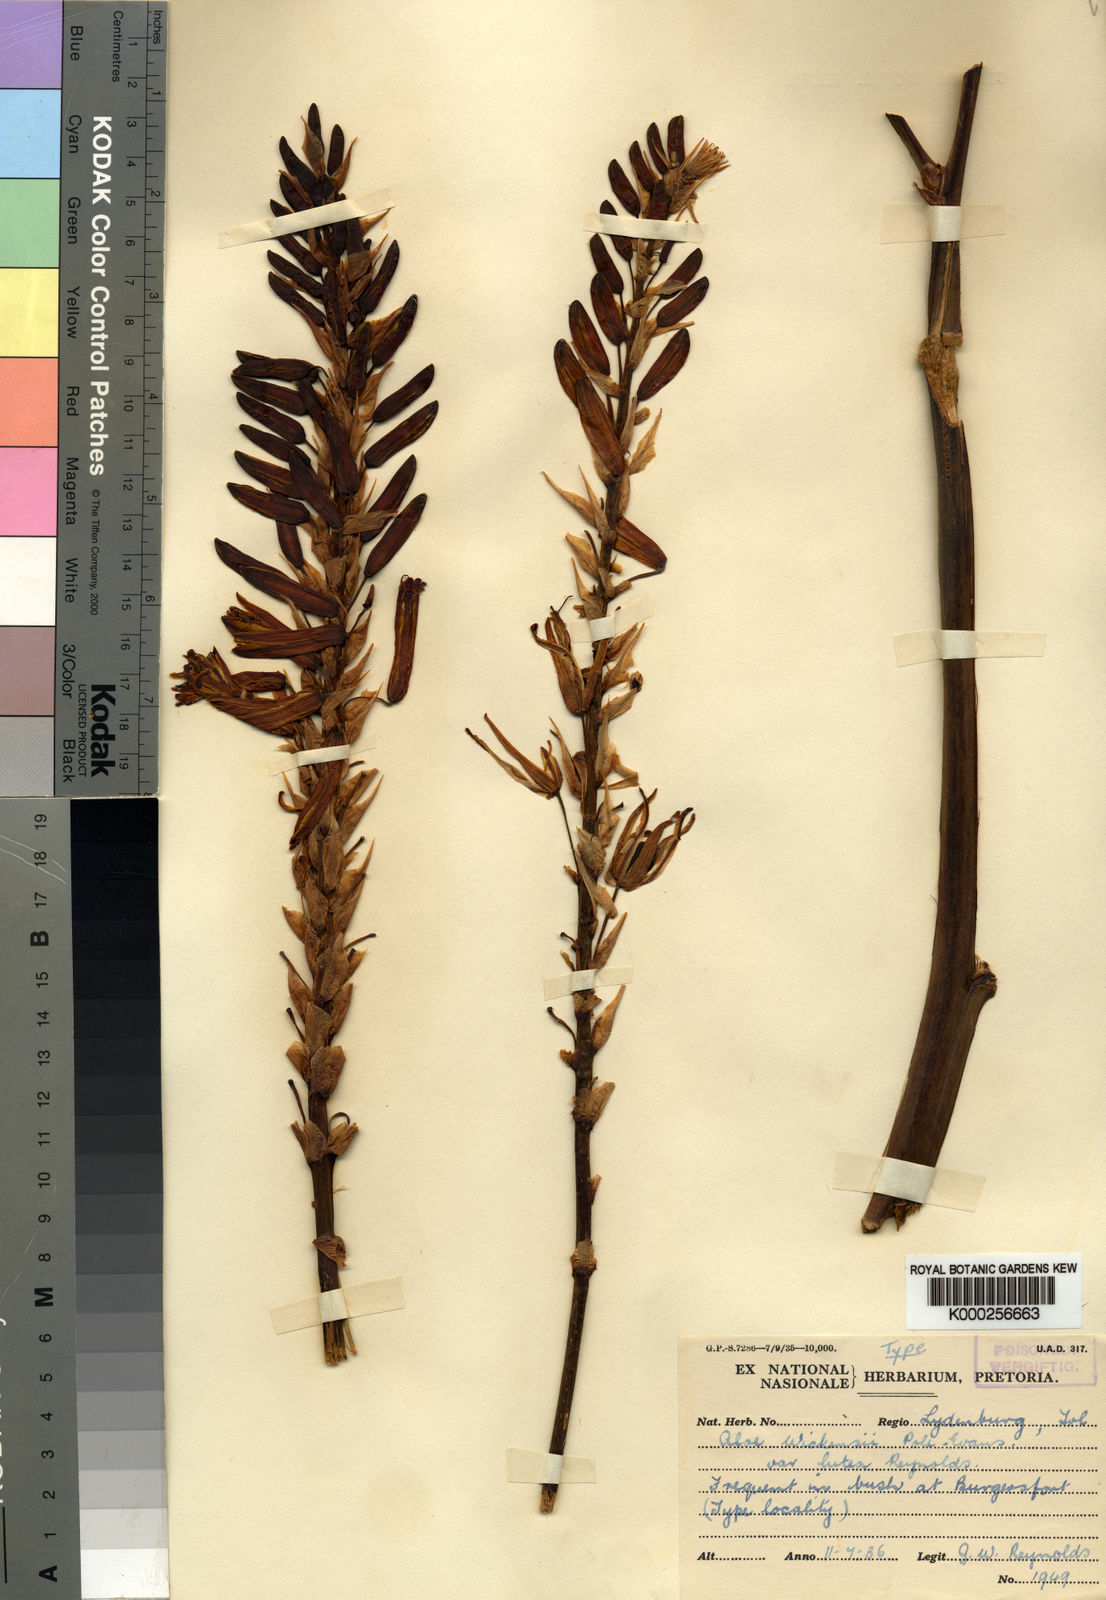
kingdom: Plantae
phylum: Tracheophyta
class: Liliopsida
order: Asparagales
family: Asphodelaceae
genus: Aloe
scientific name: Aloe cryptopoda
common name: Dr. kirk's aloe
